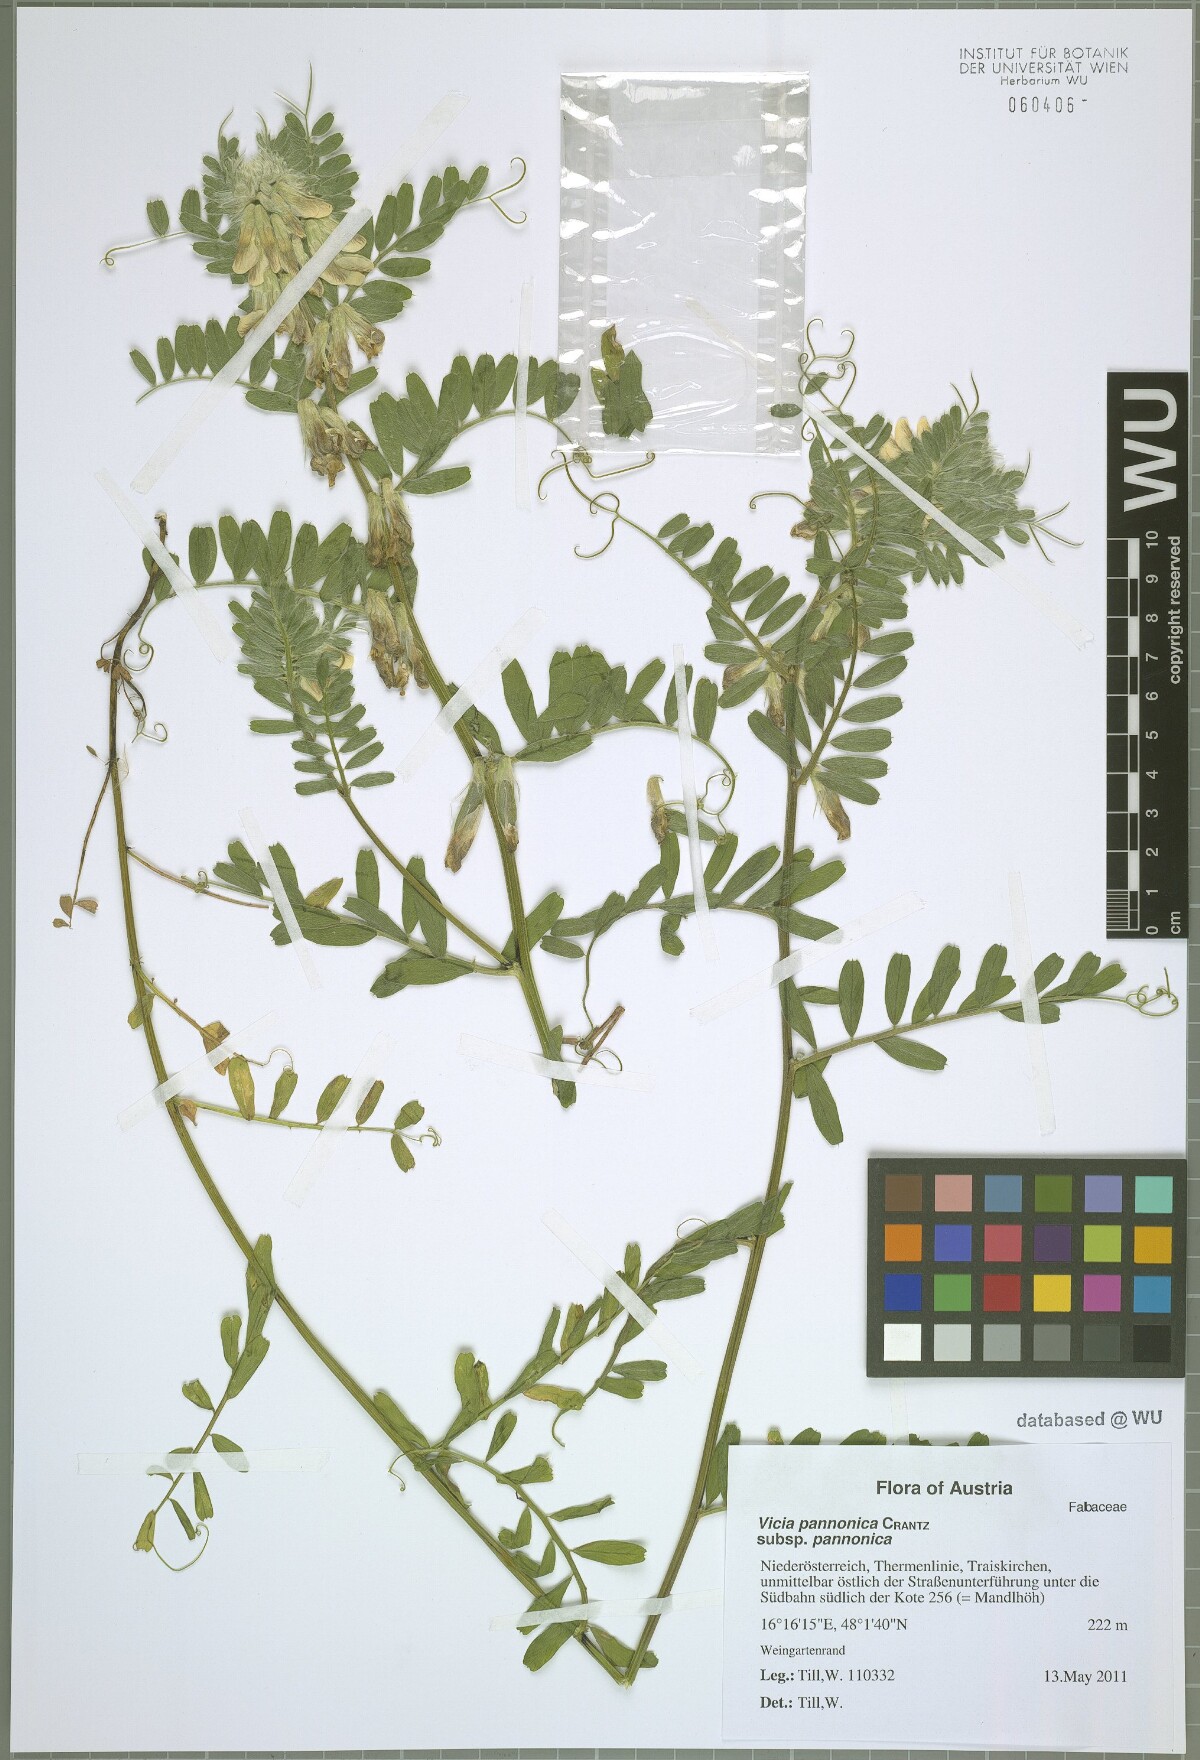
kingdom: Plantae
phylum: Tracheophyta
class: Magnoliopsida
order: Fabales
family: Fabaceae
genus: Vicia
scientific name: Vicia pannonica
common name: Hungarian vetch
